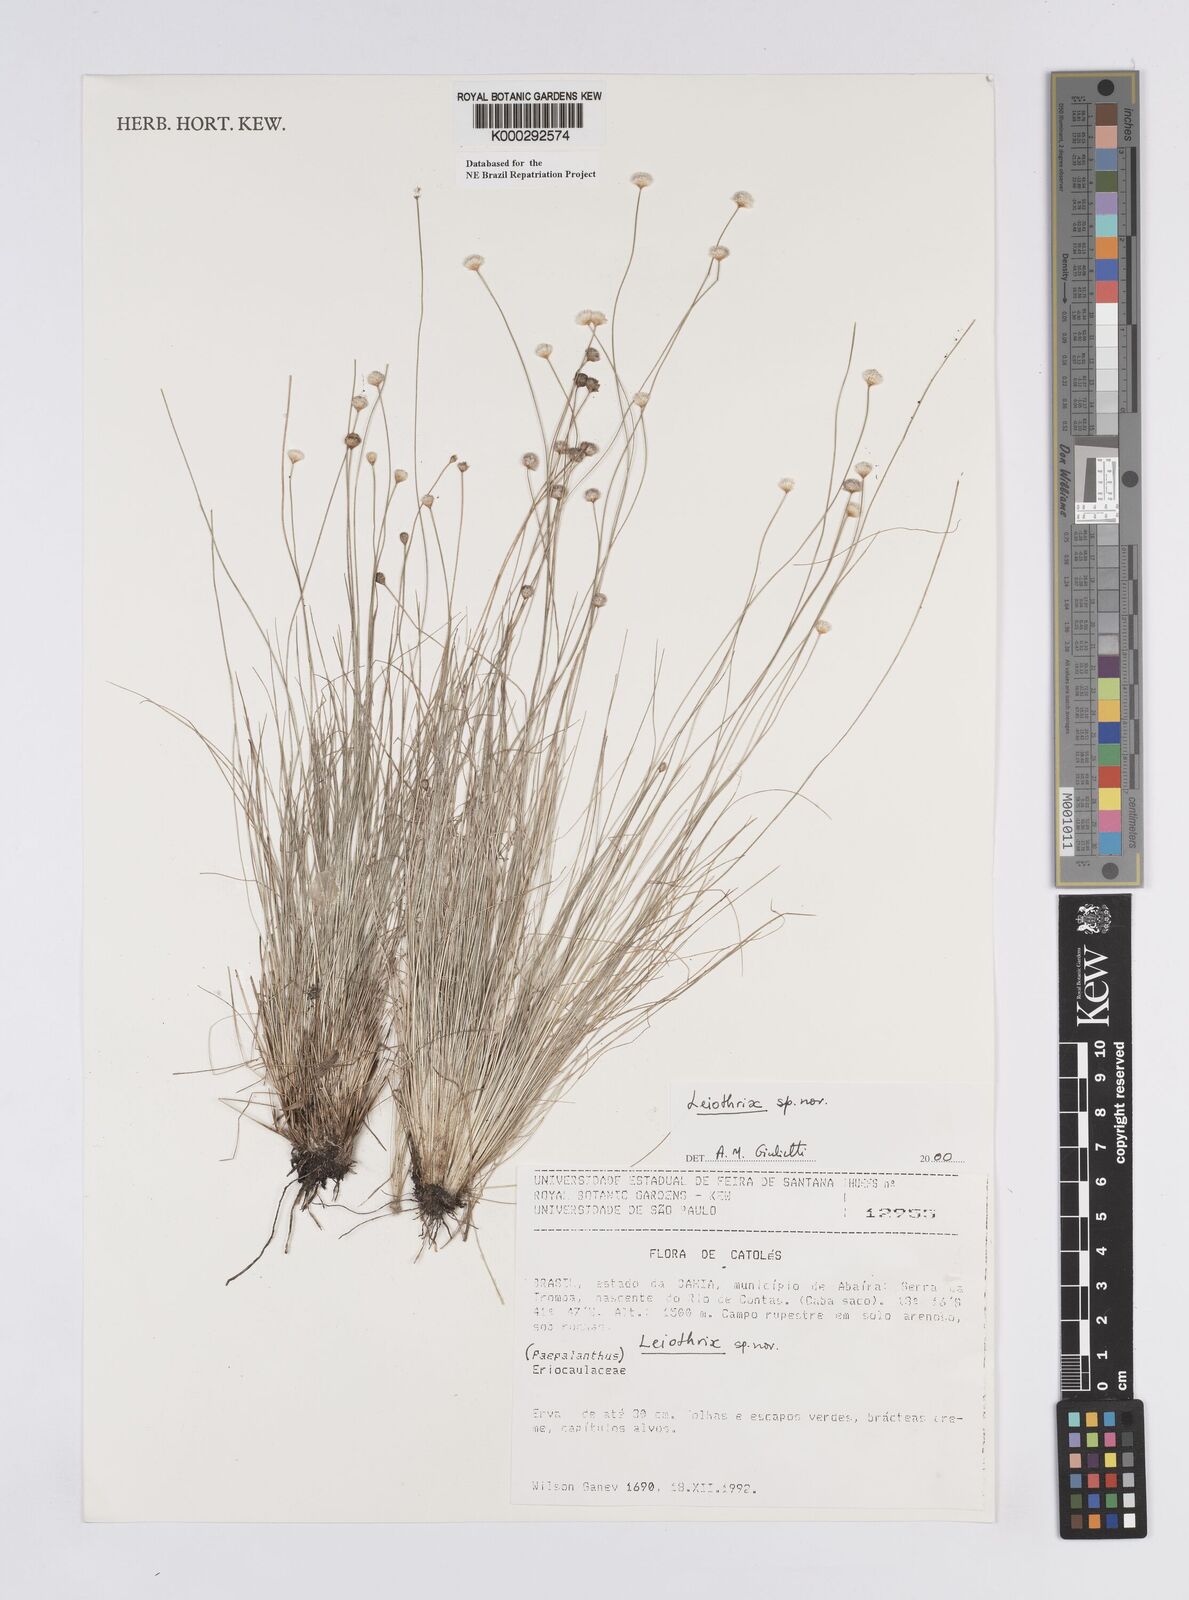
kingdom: Plantae
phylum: Tracheophyta
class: Liliopsida
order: Poales
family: Eriocaulaceae
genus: Leiothrix
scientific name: Leiothrix
